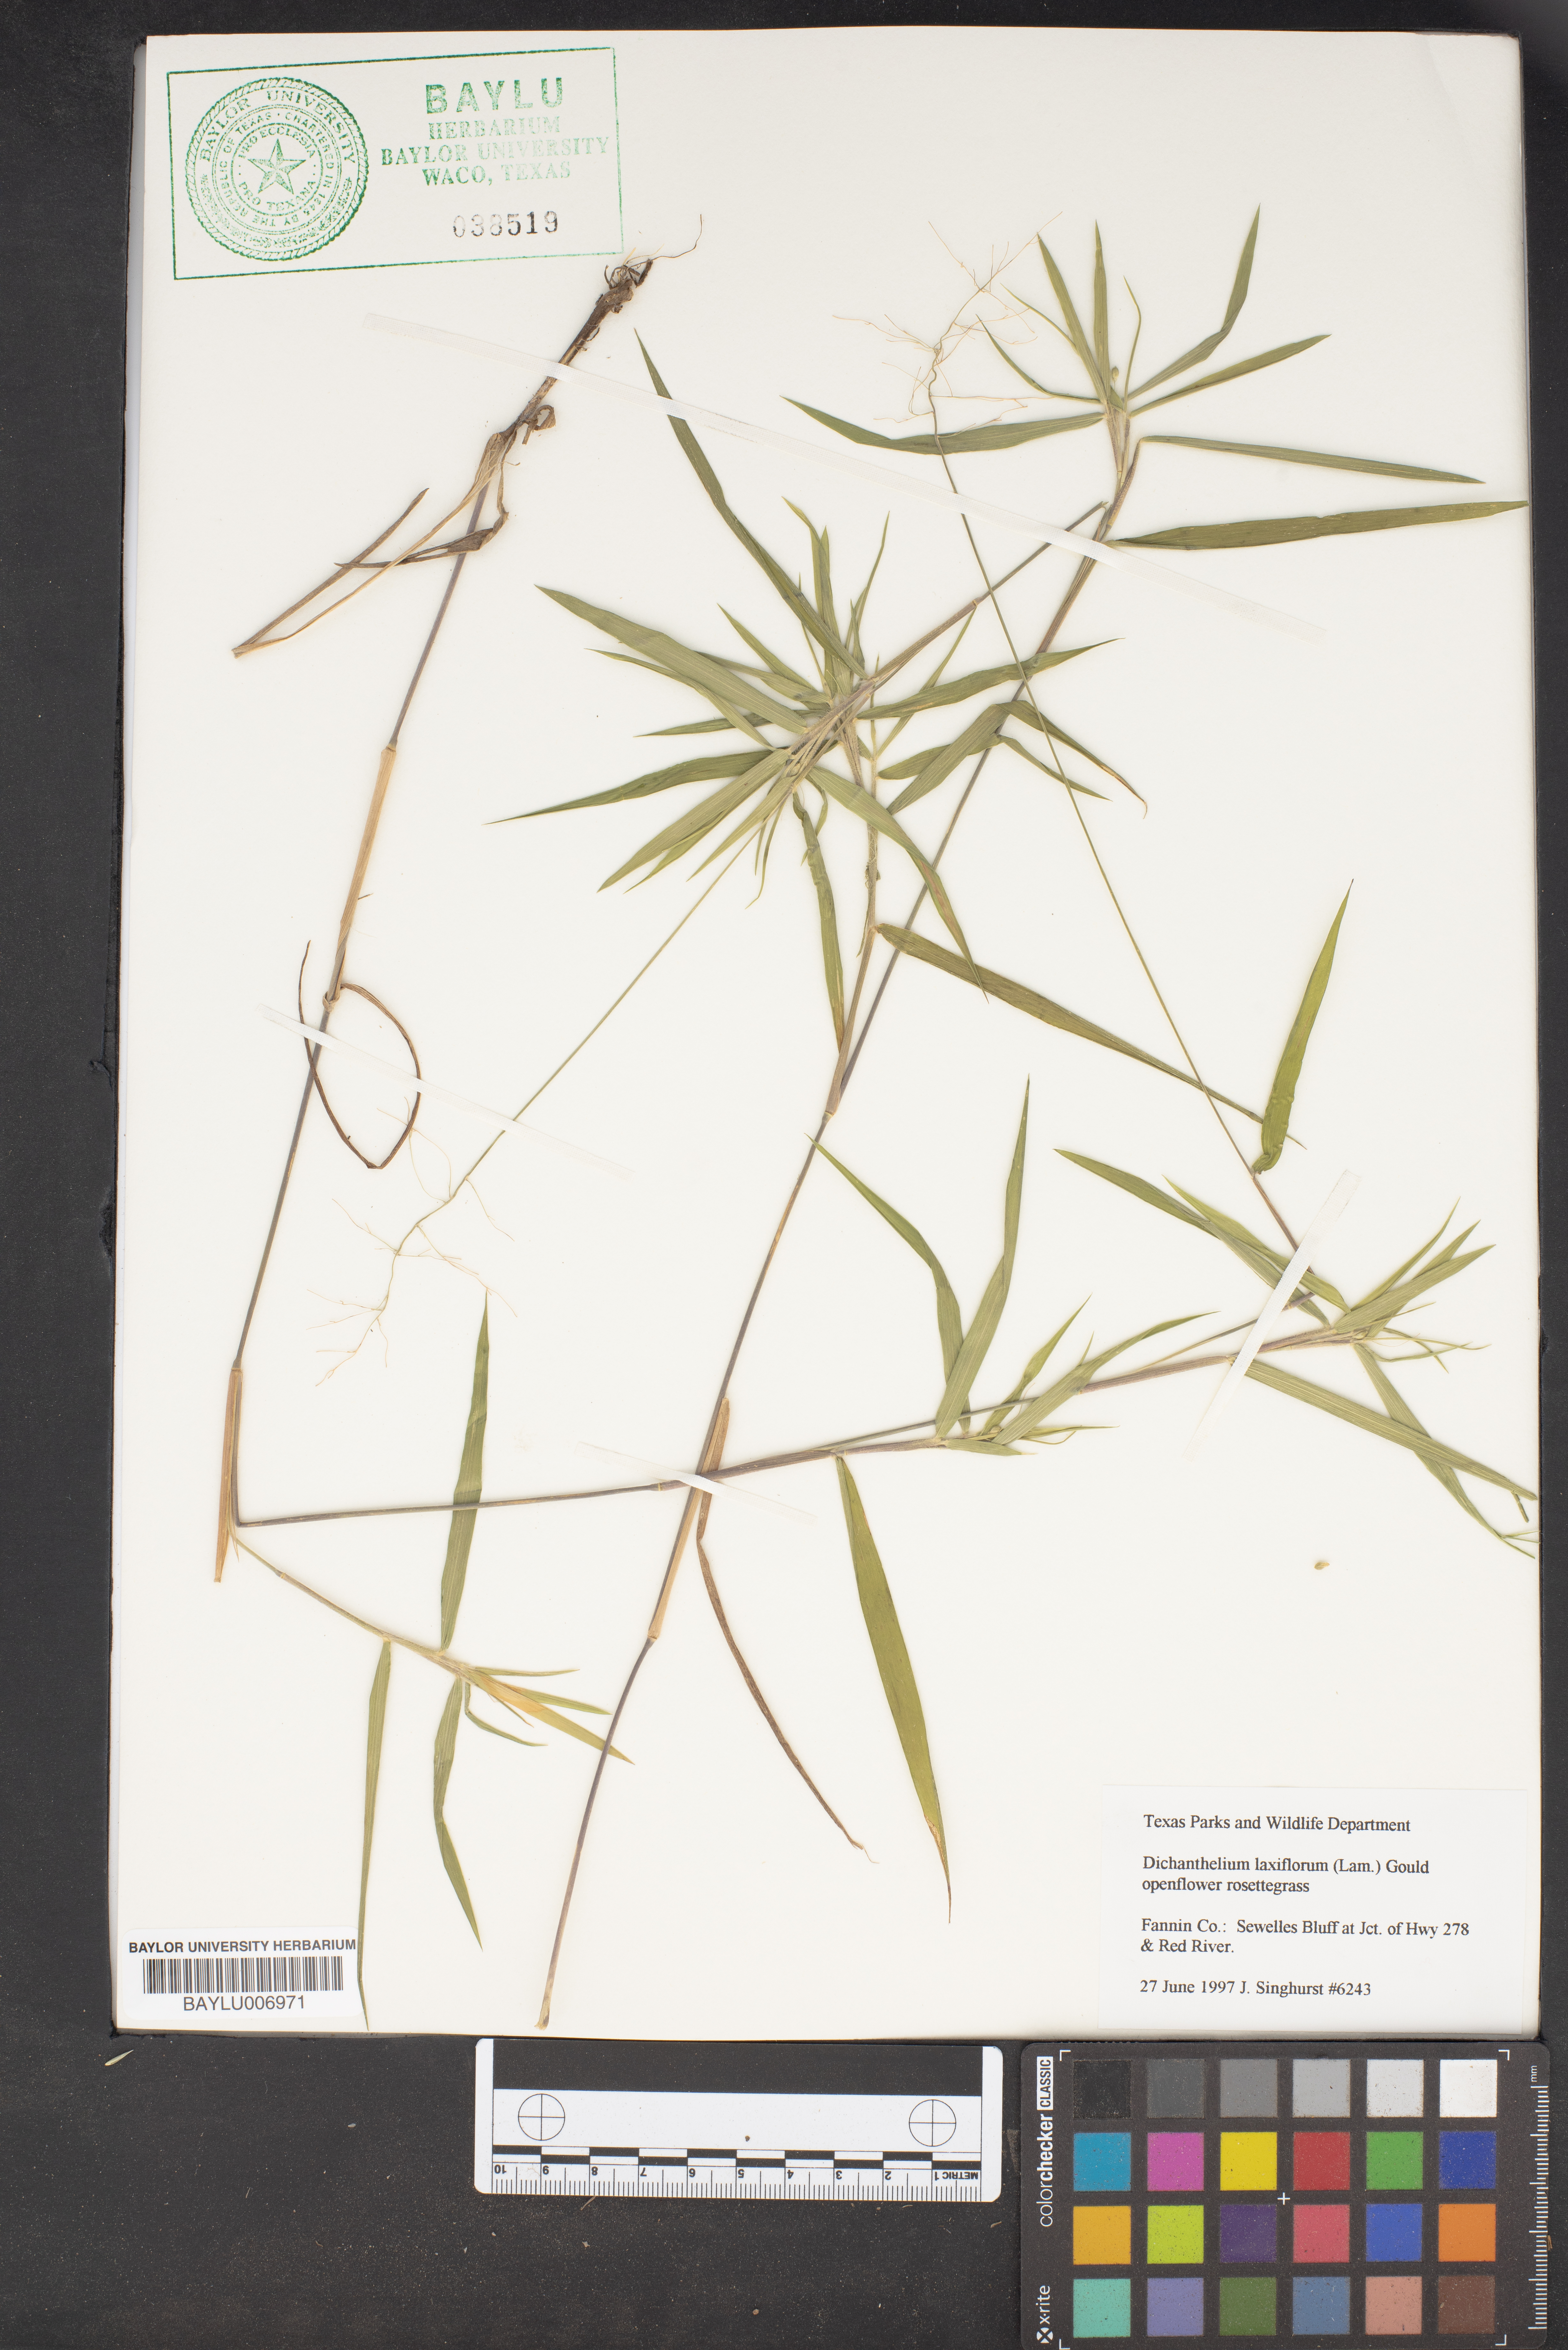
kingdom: Plantae
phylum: Tracheophyta
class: Liliopsida
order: Poales
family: Poaceae
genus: Dichanthelium
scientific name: Dichanthelium laxiflorum
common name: Soft-tuft panic grass
